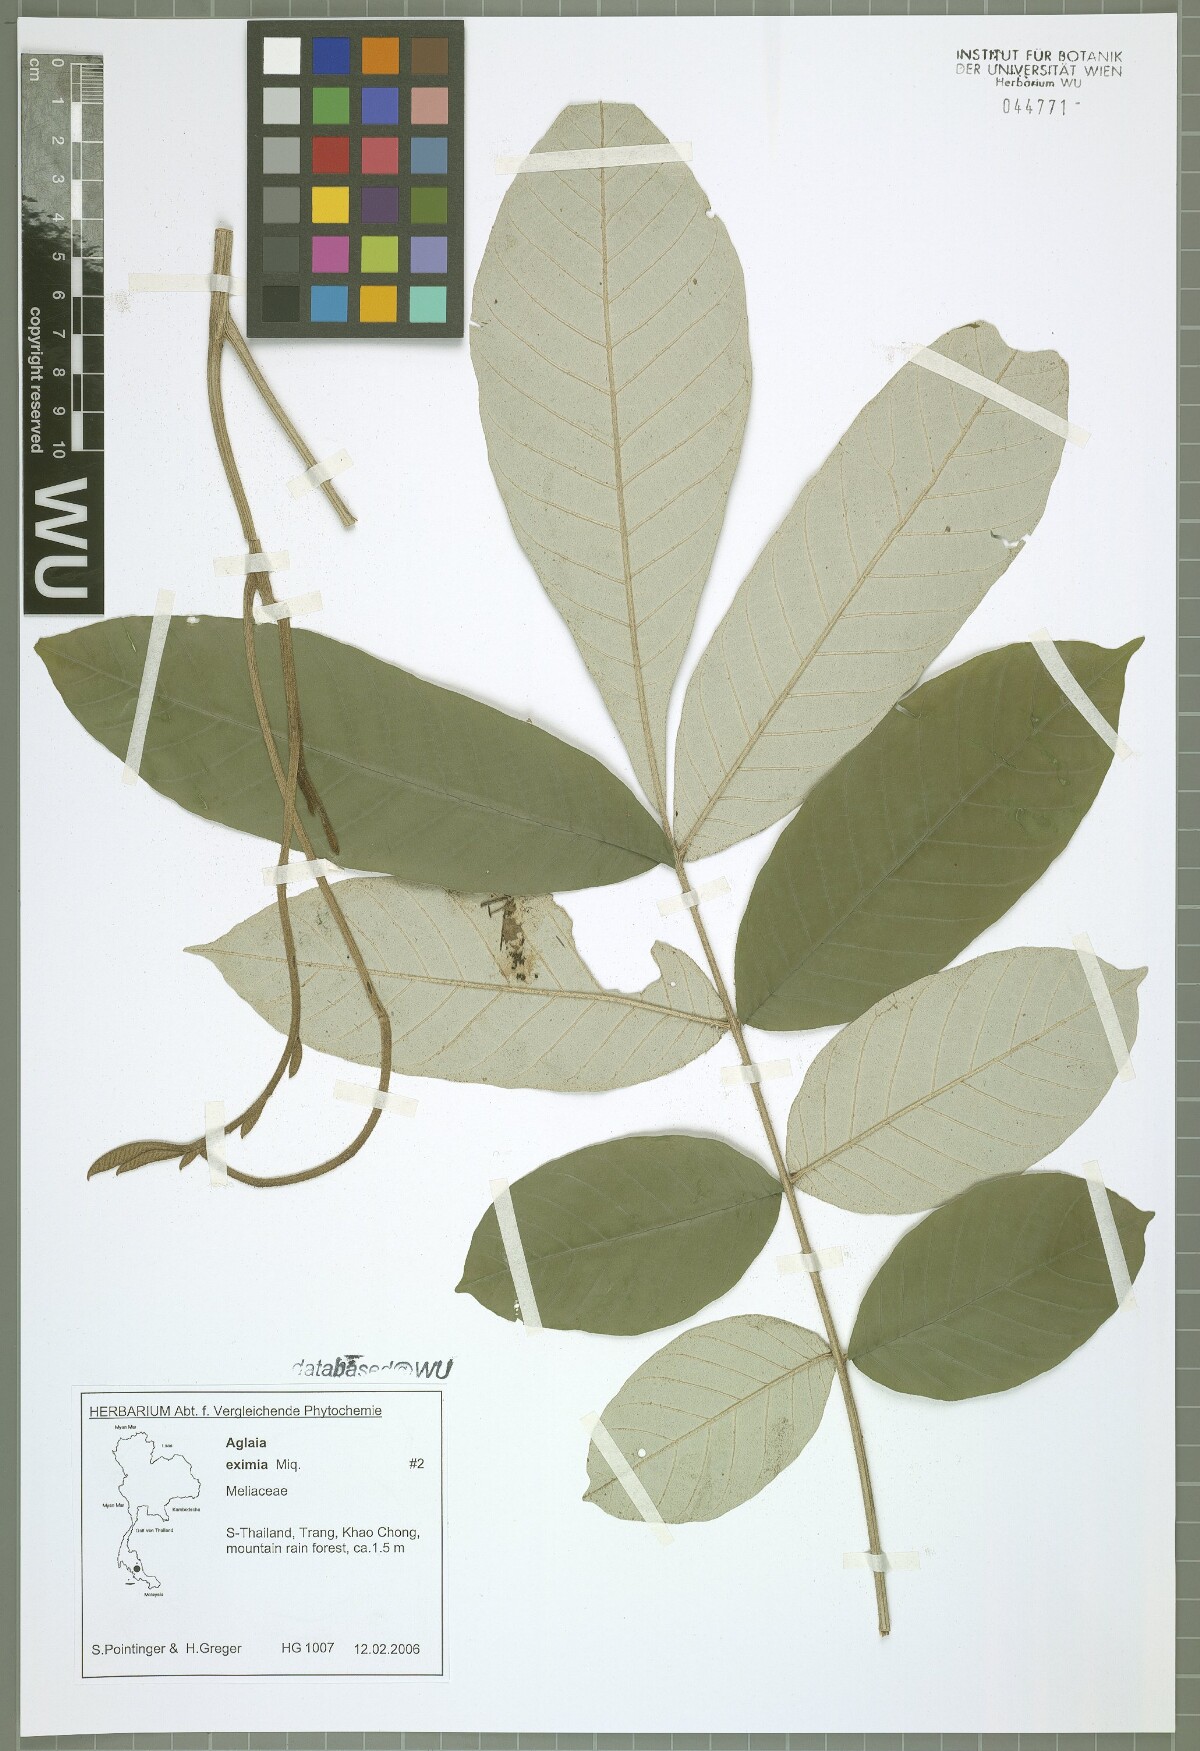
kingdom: Plantae
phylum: Tracheophyta
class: Magnoliopsida
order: Sapindales
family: Meliaceae
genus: Aglaia
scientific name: Aglaia eximia
